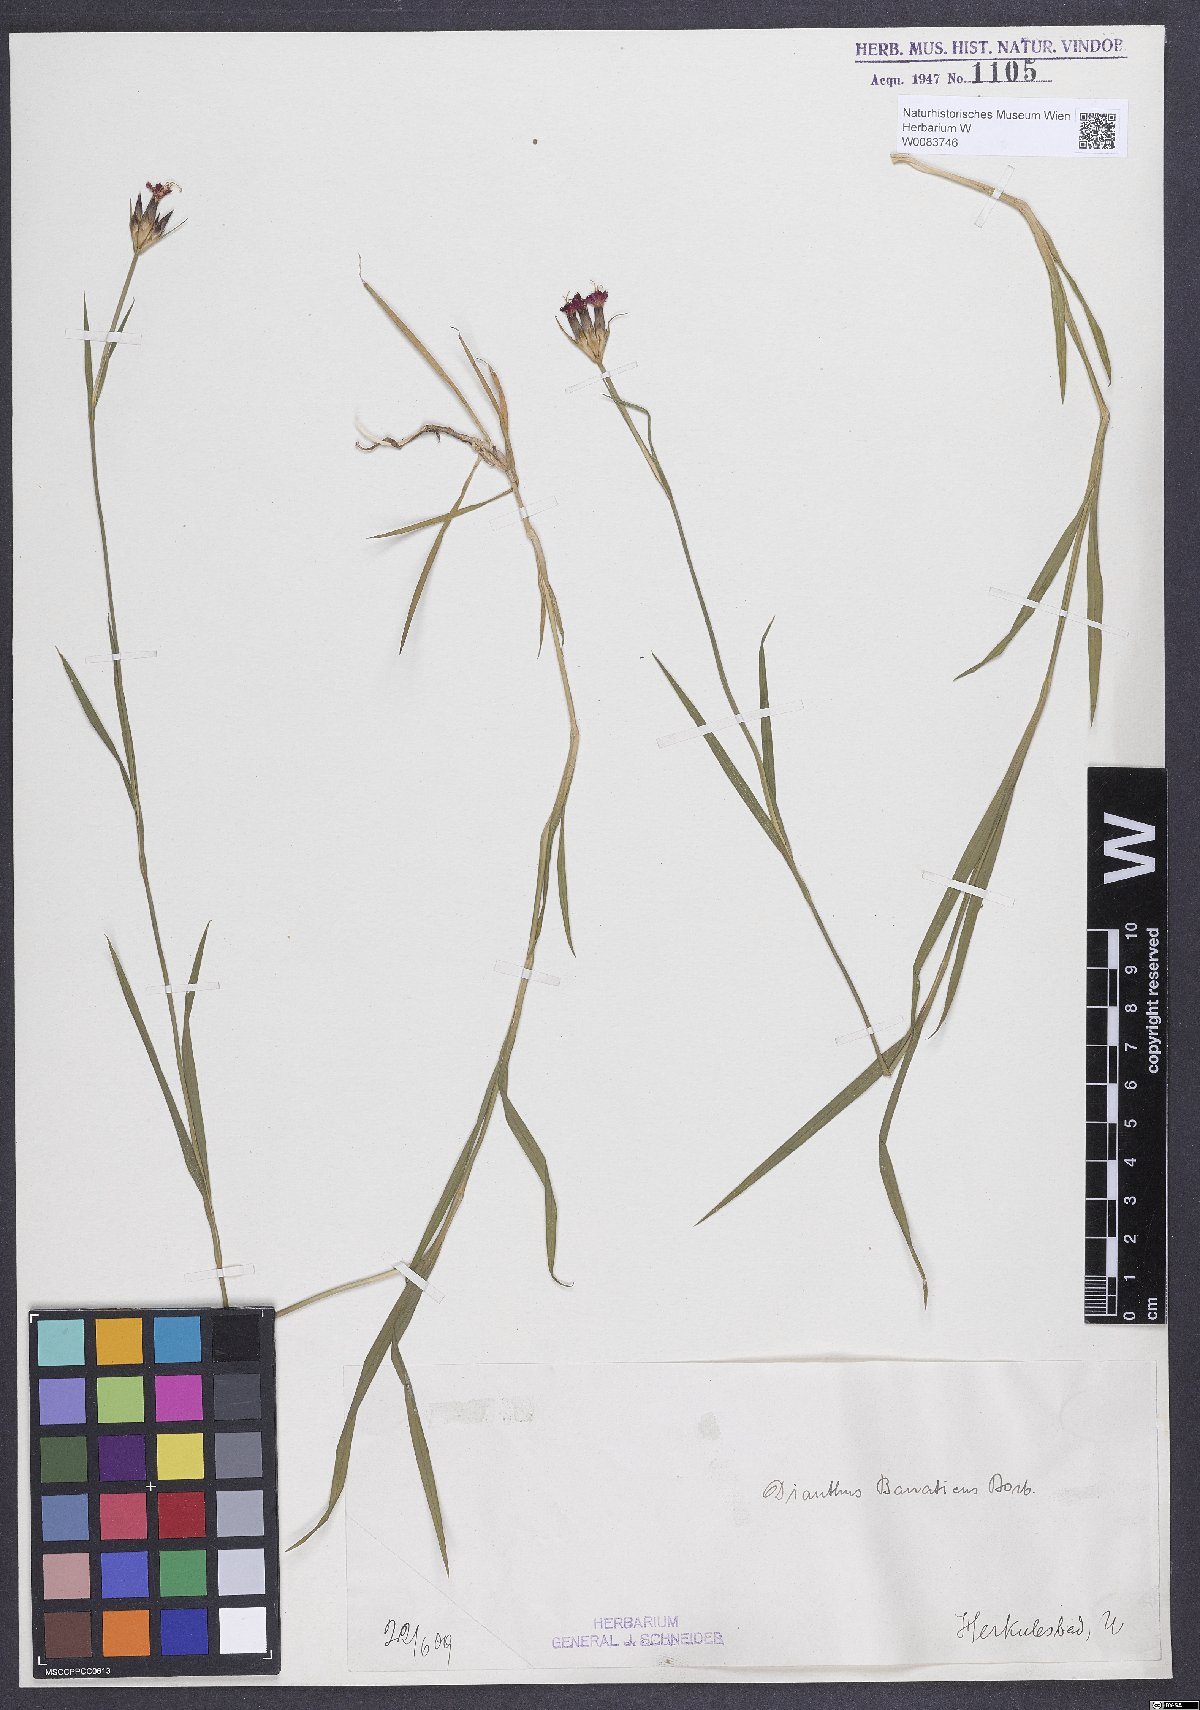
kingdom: Plantae
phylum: Tracheophyta
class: Magnoliopsida
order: Caryophyllales
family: Caryophyllaceae
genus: Dianthus
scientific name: Dianthus giganteus
